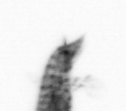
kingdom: Animalia
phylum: Arthropoda
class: Maxillopoda
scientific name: Maxillopoda
